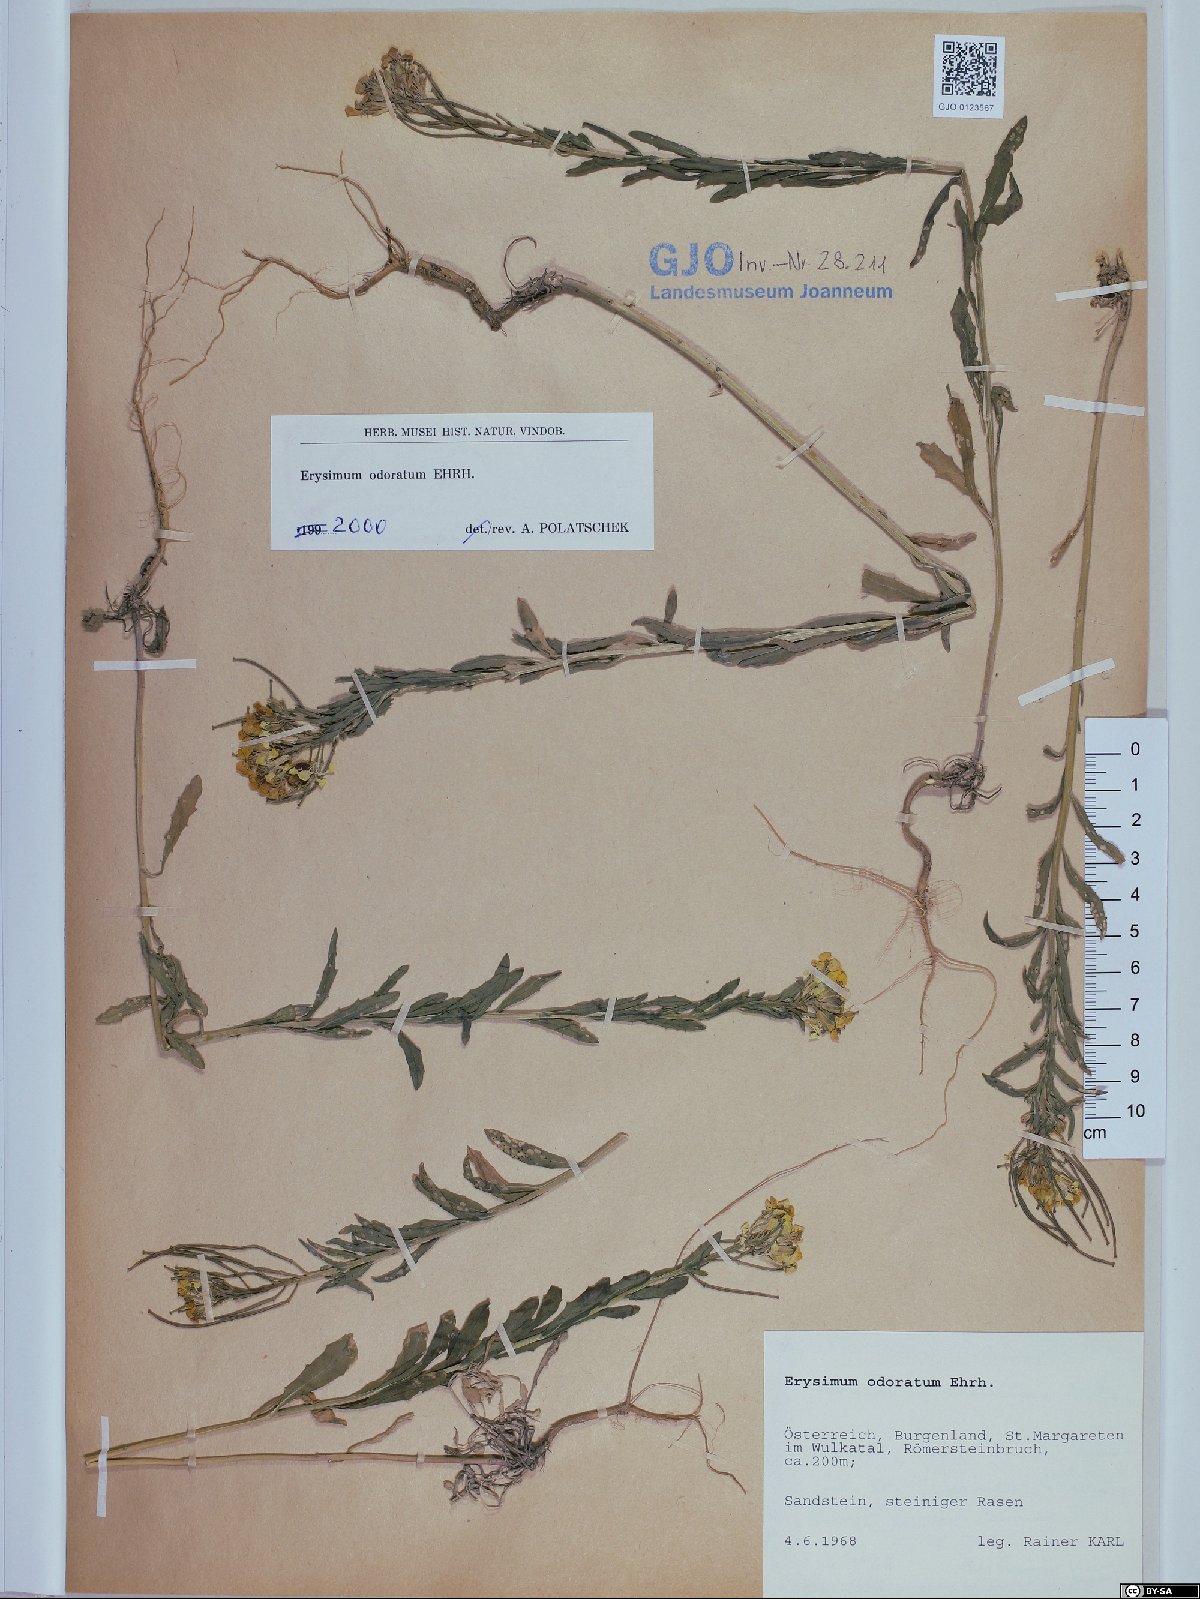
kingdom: Plantae
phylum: Tracheophyta
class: Magnoliopsida
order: Brassicales
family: Brassicaceae
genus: Erysimum
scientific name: Erysimum odoratum
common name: Smelly wallflower
